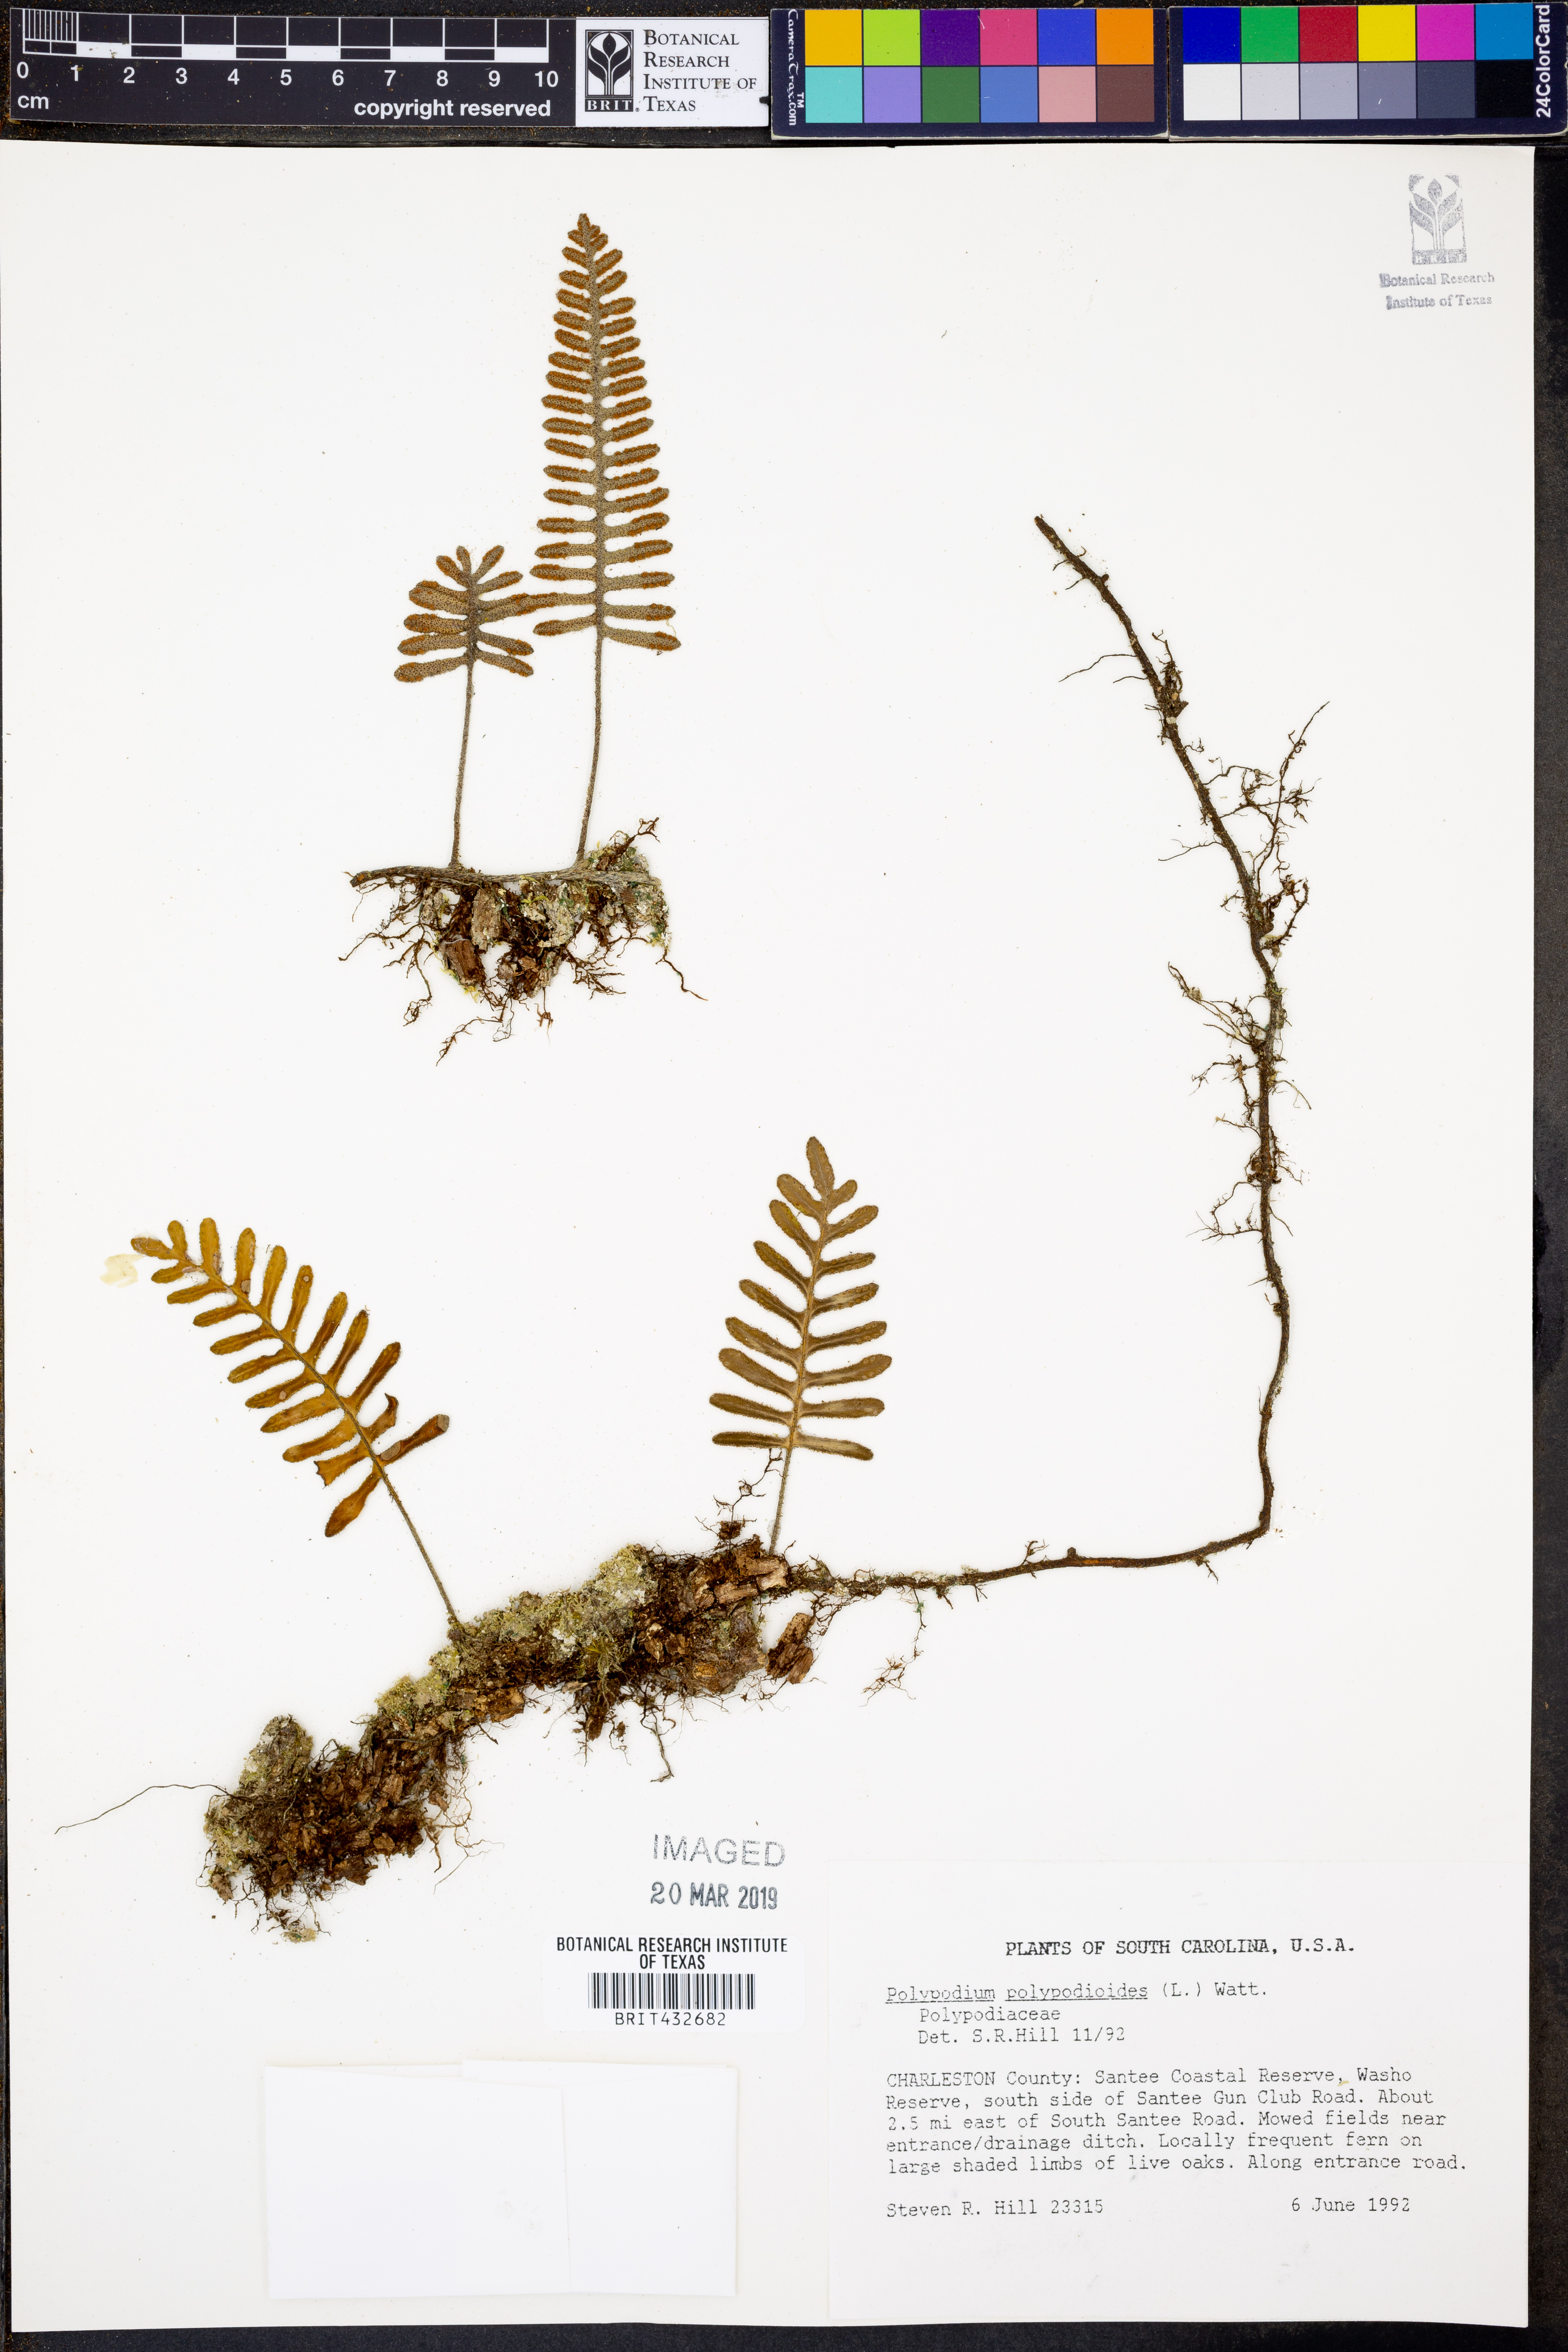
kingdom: Plantae
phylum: Tracheophyta
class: Polypodiopsida
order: Polypodiales
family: Polypodiaceae
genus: Pleopeltis
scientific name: Pleopeltis polypodioides
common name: Resurrection fern
